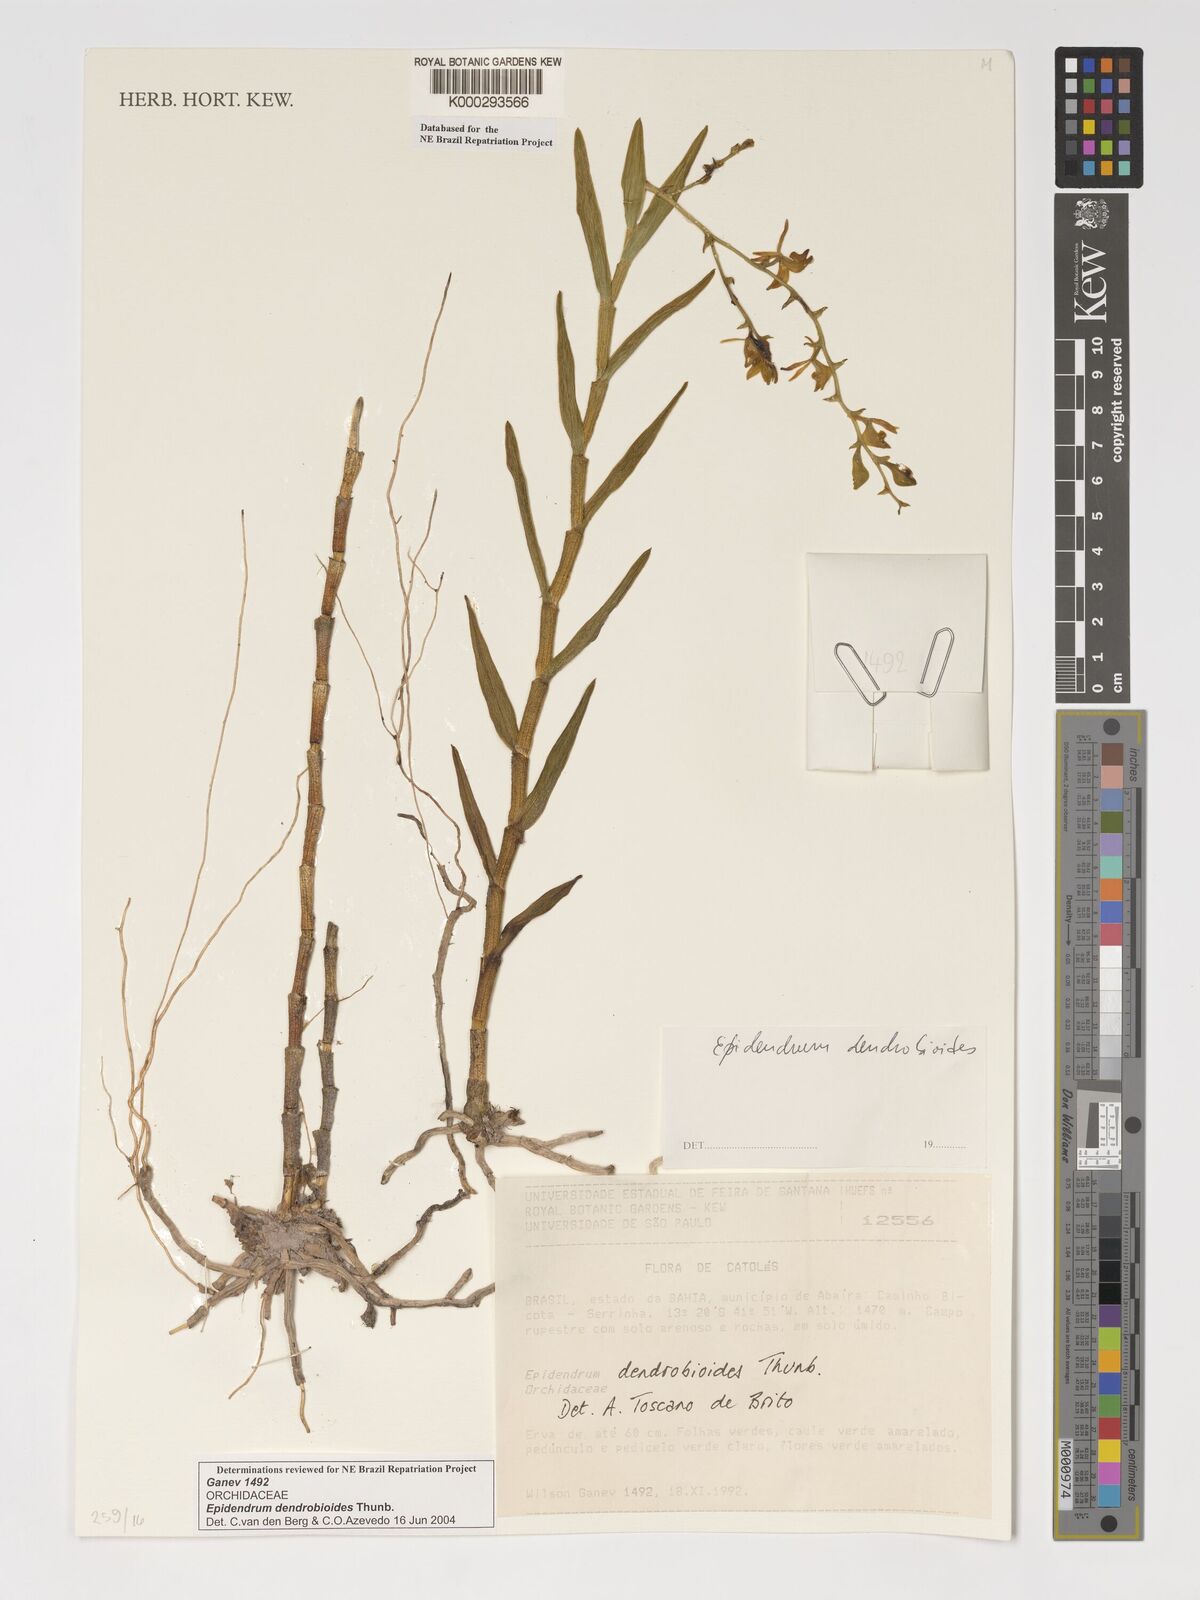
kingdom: Plantae
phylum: Tracheophyta
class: Liliopsida
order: Asparagales
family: Orchidaceae
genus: Epidendrum
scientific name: Epidendrum dendrobioides
